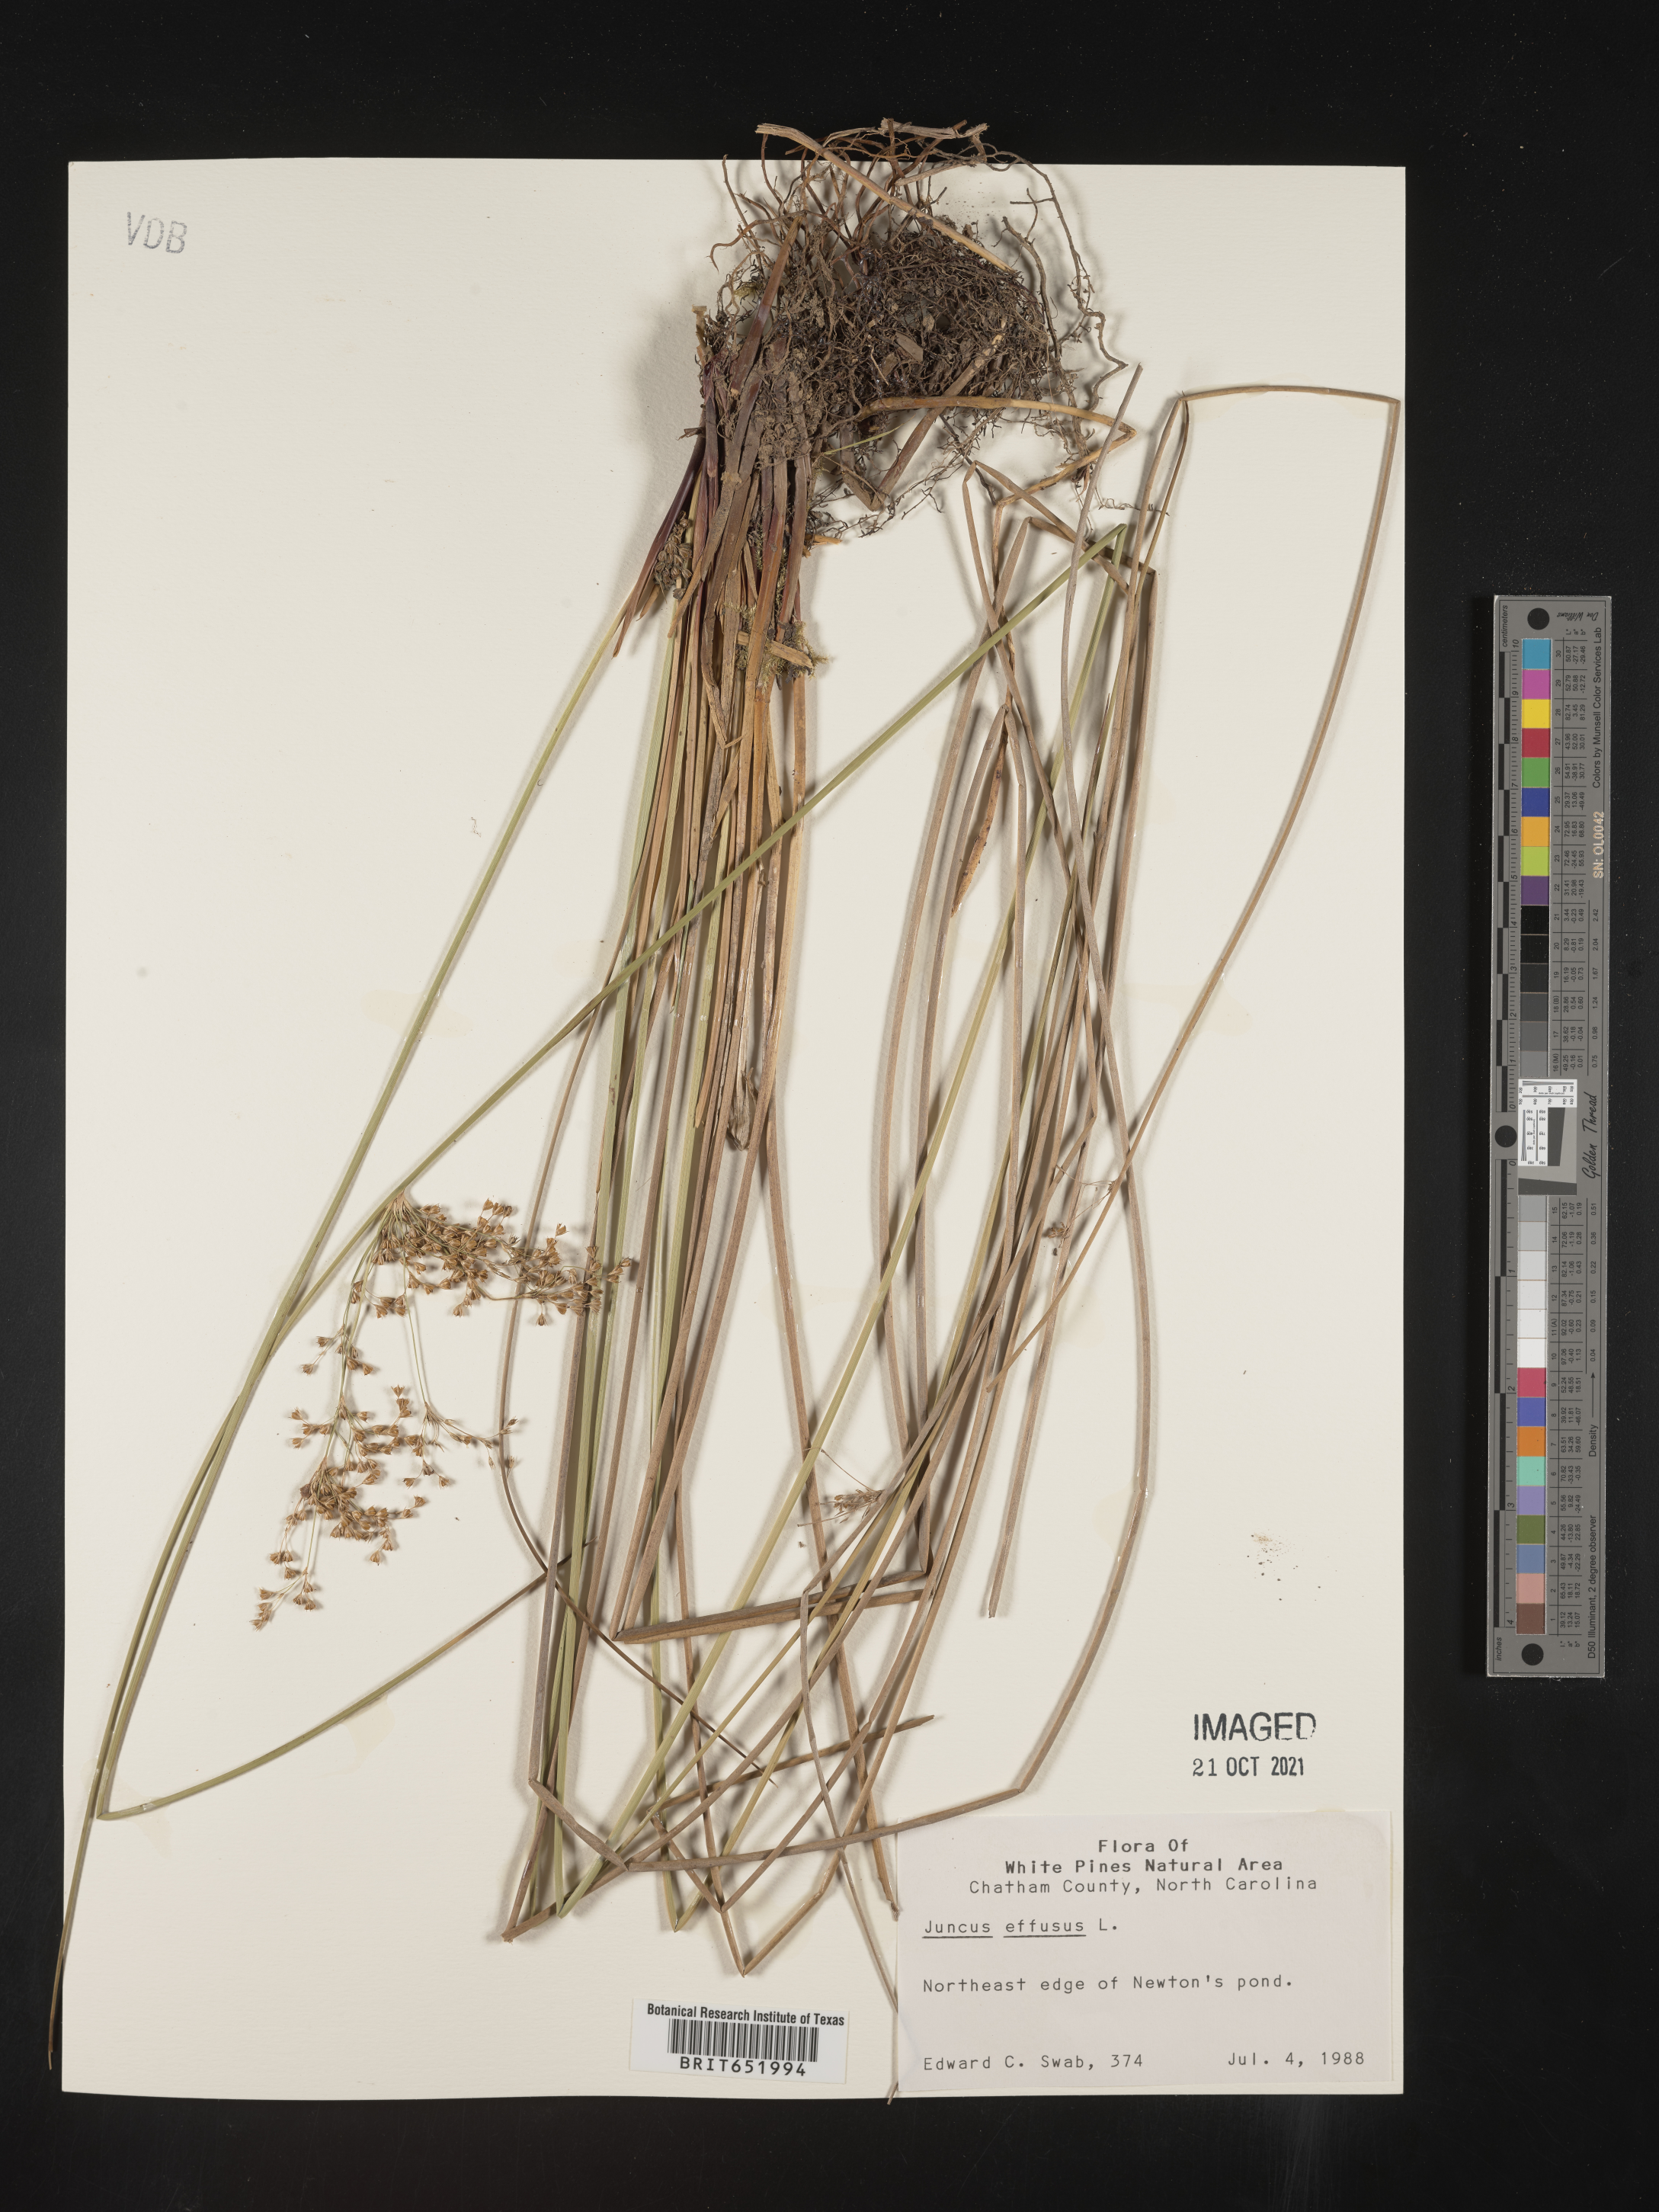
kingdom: Plantae
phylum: Tracheophyta
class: Liliopsida
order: Poales
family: Juncaceae
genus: Juncus
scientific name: Juncus effusus
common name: Soft rush
